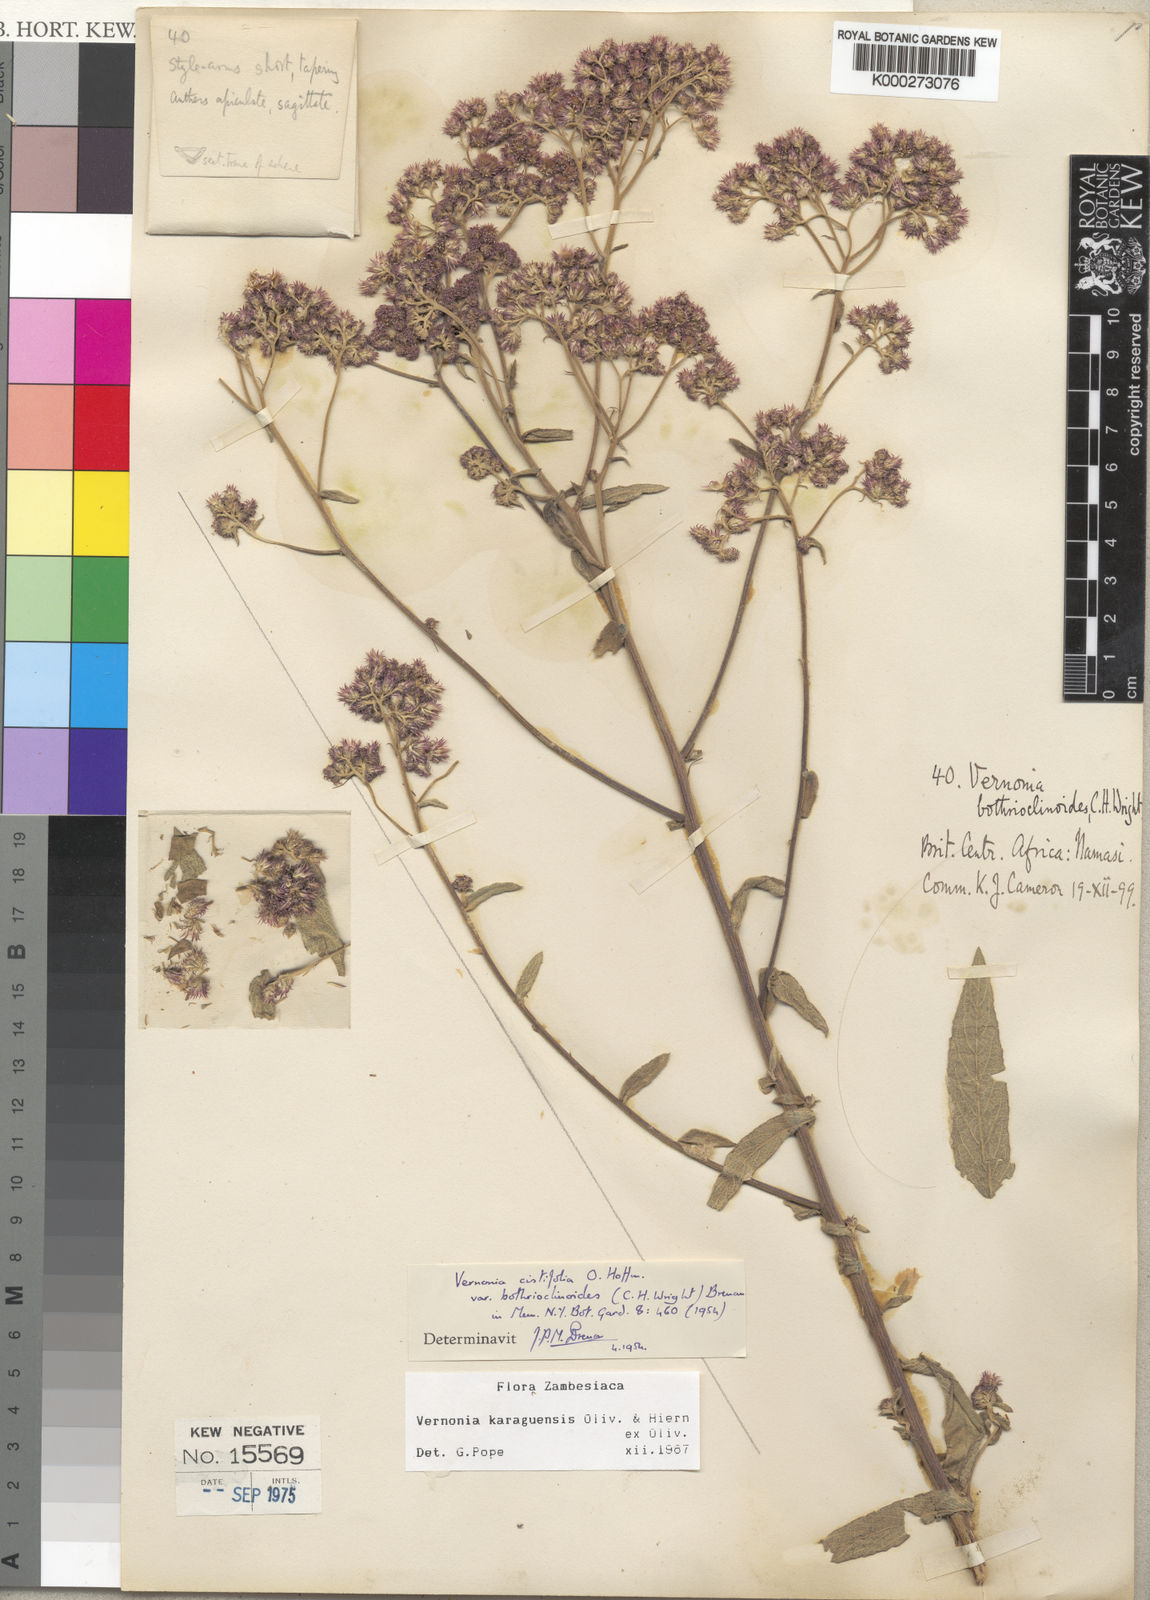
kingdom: Plantae
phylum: Tracheophyta
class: Magnoliopsida
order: Asterales
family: Asteraceae
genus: Orbivestus
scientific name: Orbivestus karaguensis
